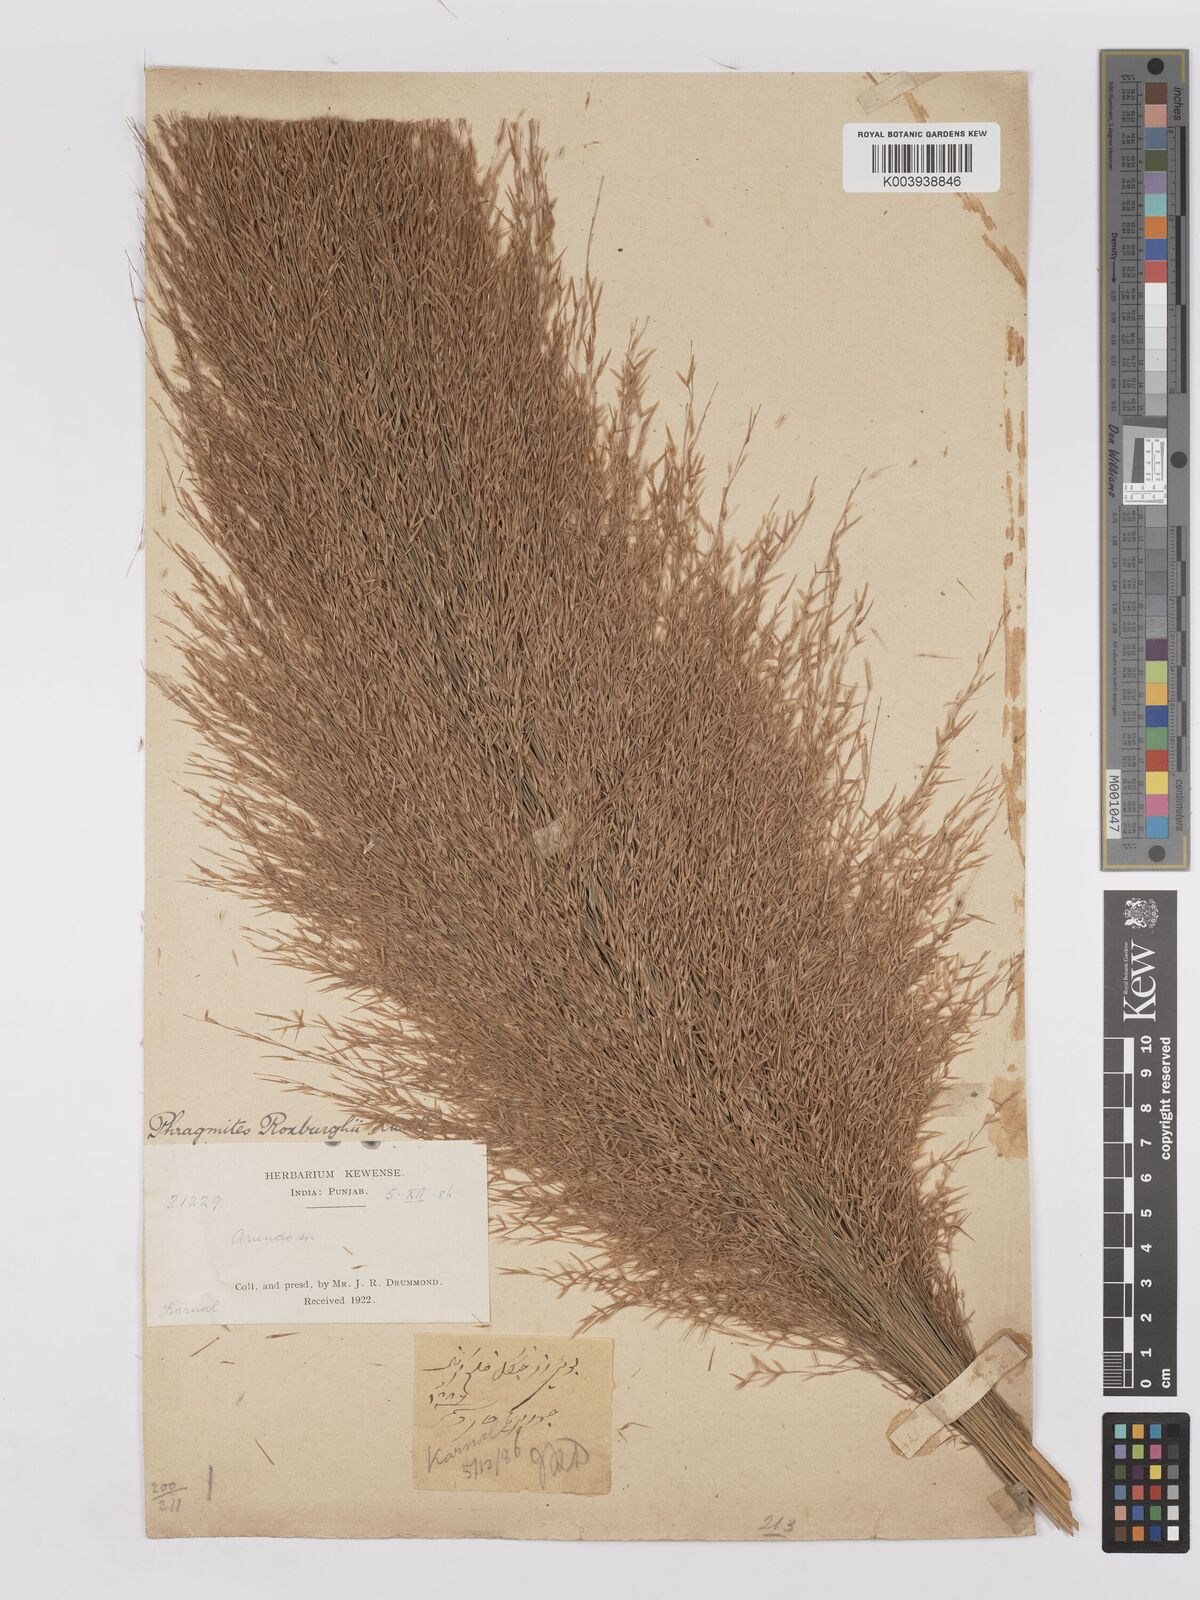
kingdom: Plantae
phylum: Tracheophyta
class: Liliopsida
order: Poales
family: Poaceae
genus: Phragmites
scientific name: Phragmites karka
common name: Tropical reed
